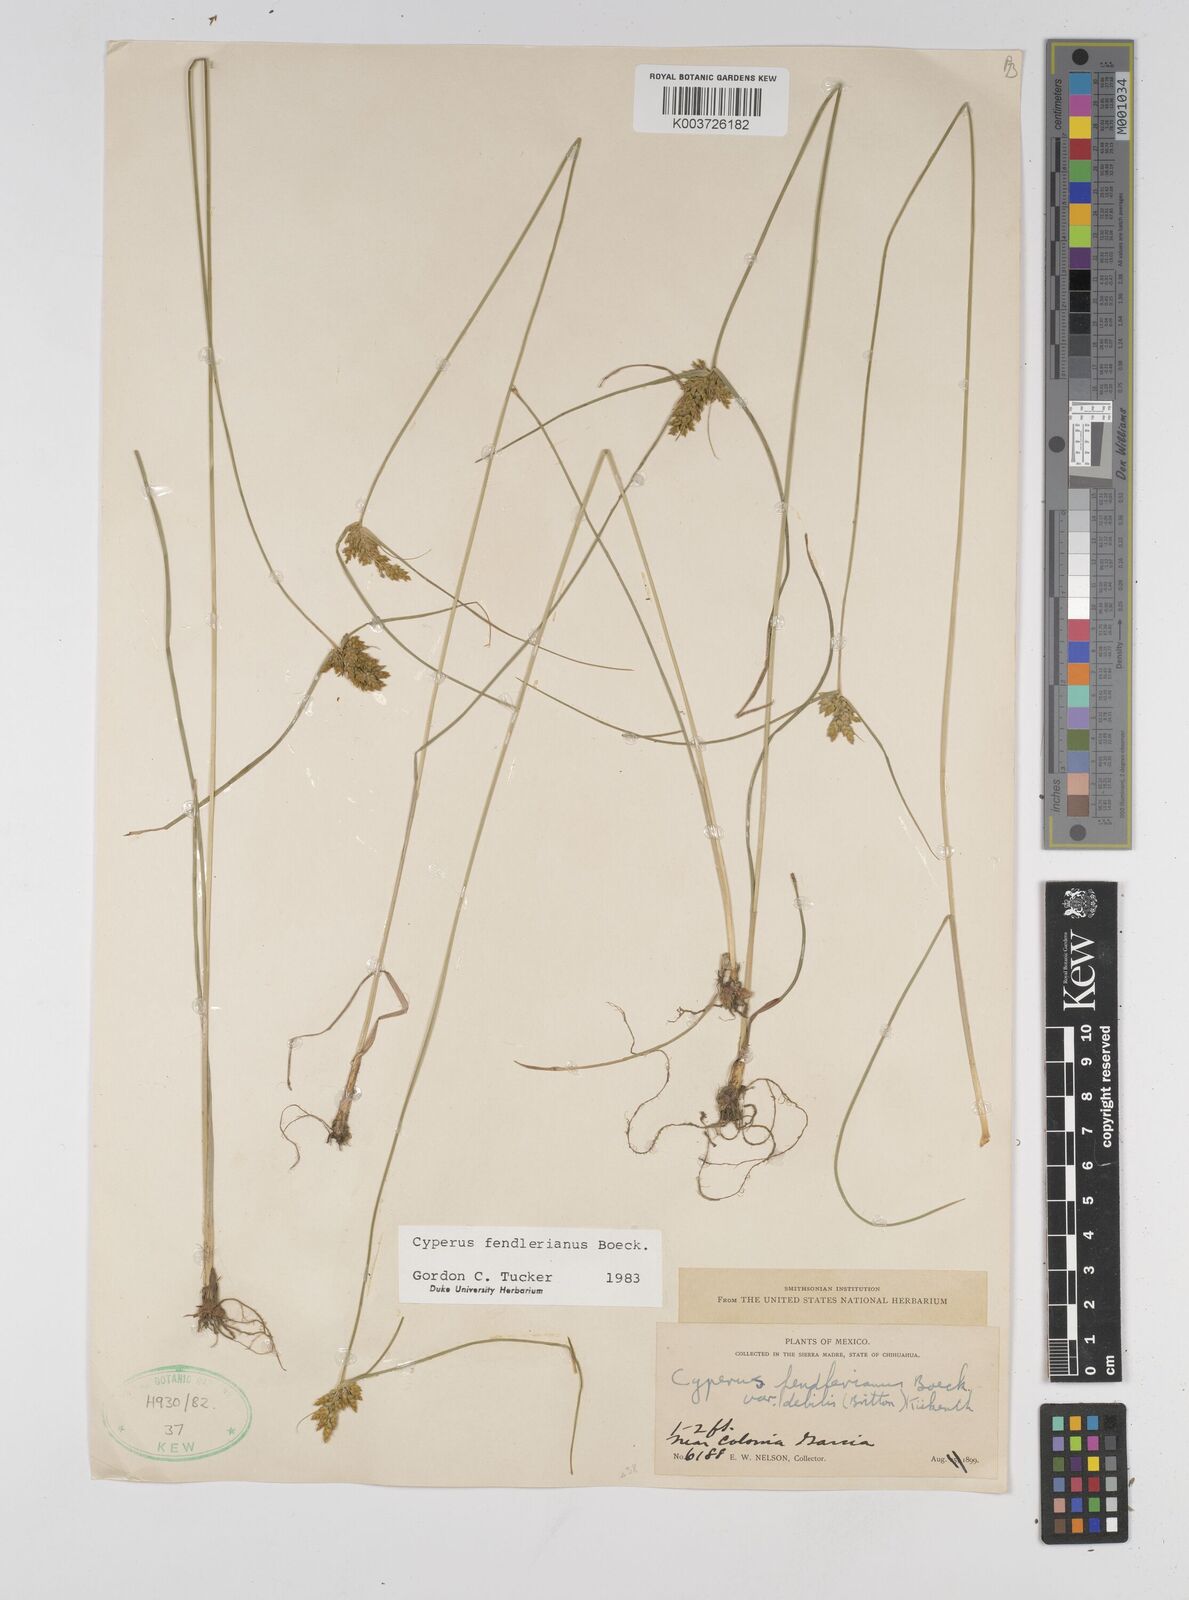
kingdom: Plantae
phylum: Tracheophyta
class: Liliopsida
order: Poales
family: Cyperaceae
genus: Cyperus
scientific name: Cyperus fendlerianus
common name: Fendler flat sedge
